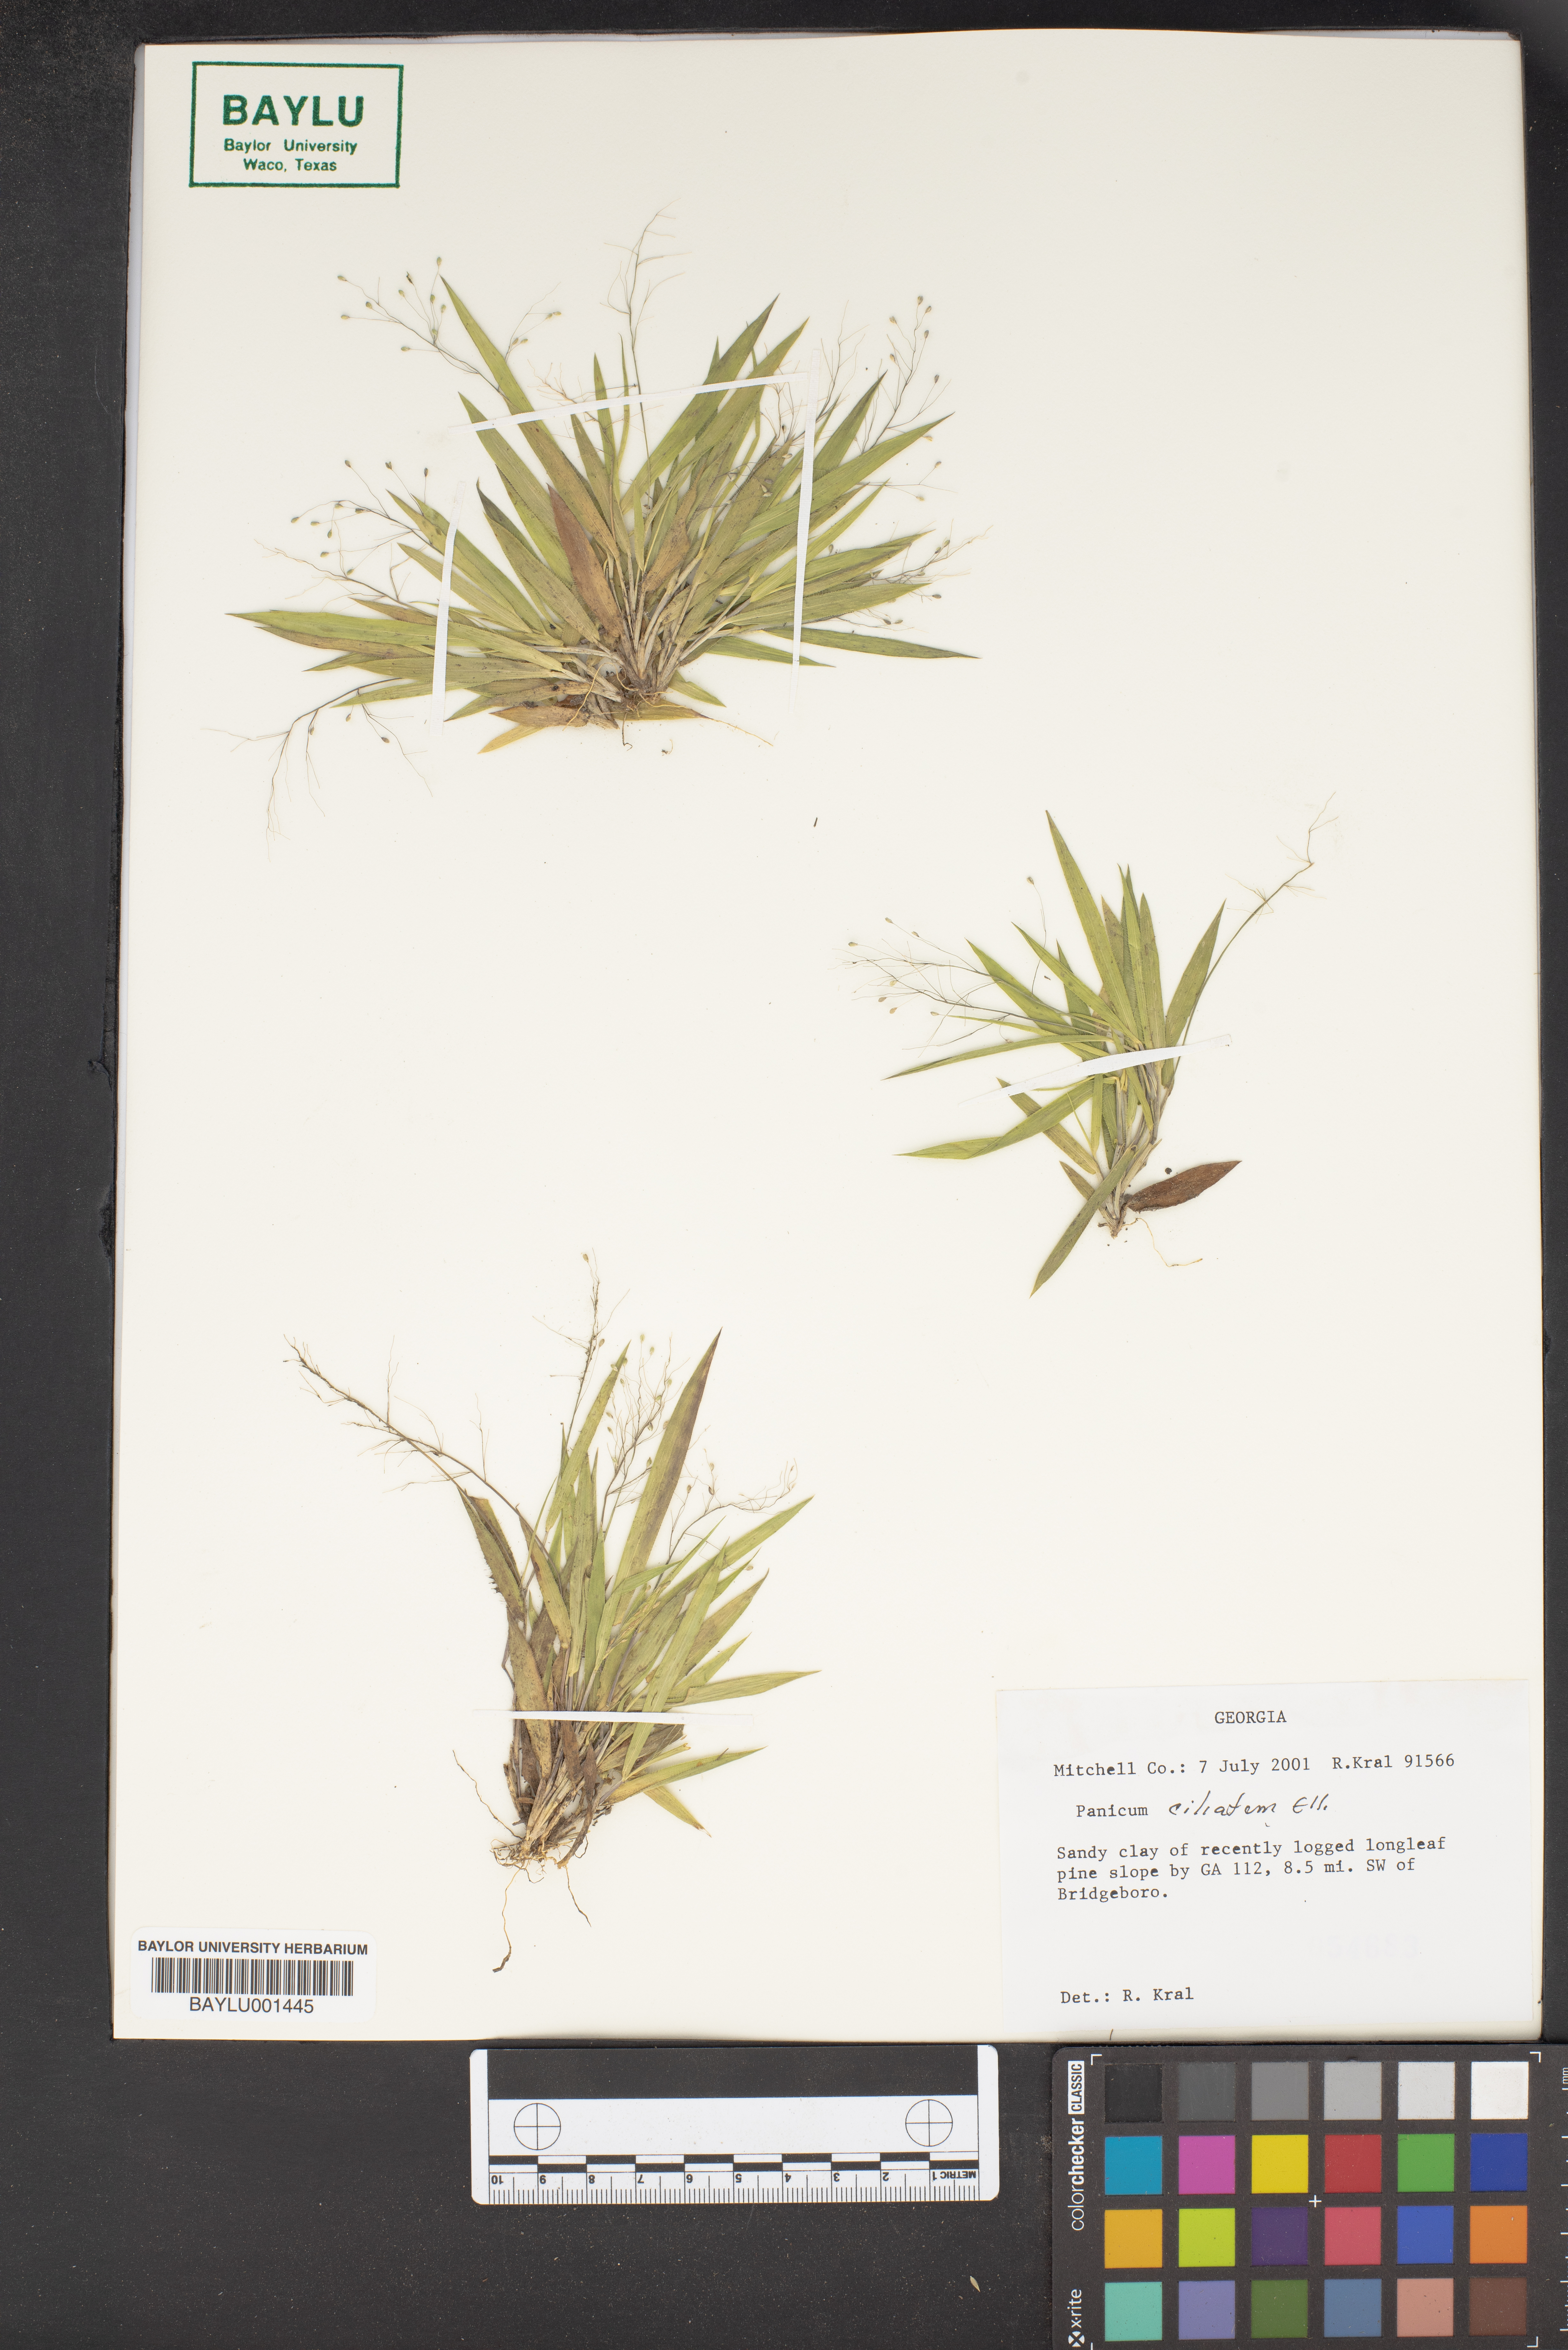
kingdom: Plantae
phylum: Tracheophyta
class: Liliopsida
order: Poales
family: Poaceae
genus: Dichanthelium
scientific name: Dichanthelium strigosum
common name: Cushion-tuft panic grass
